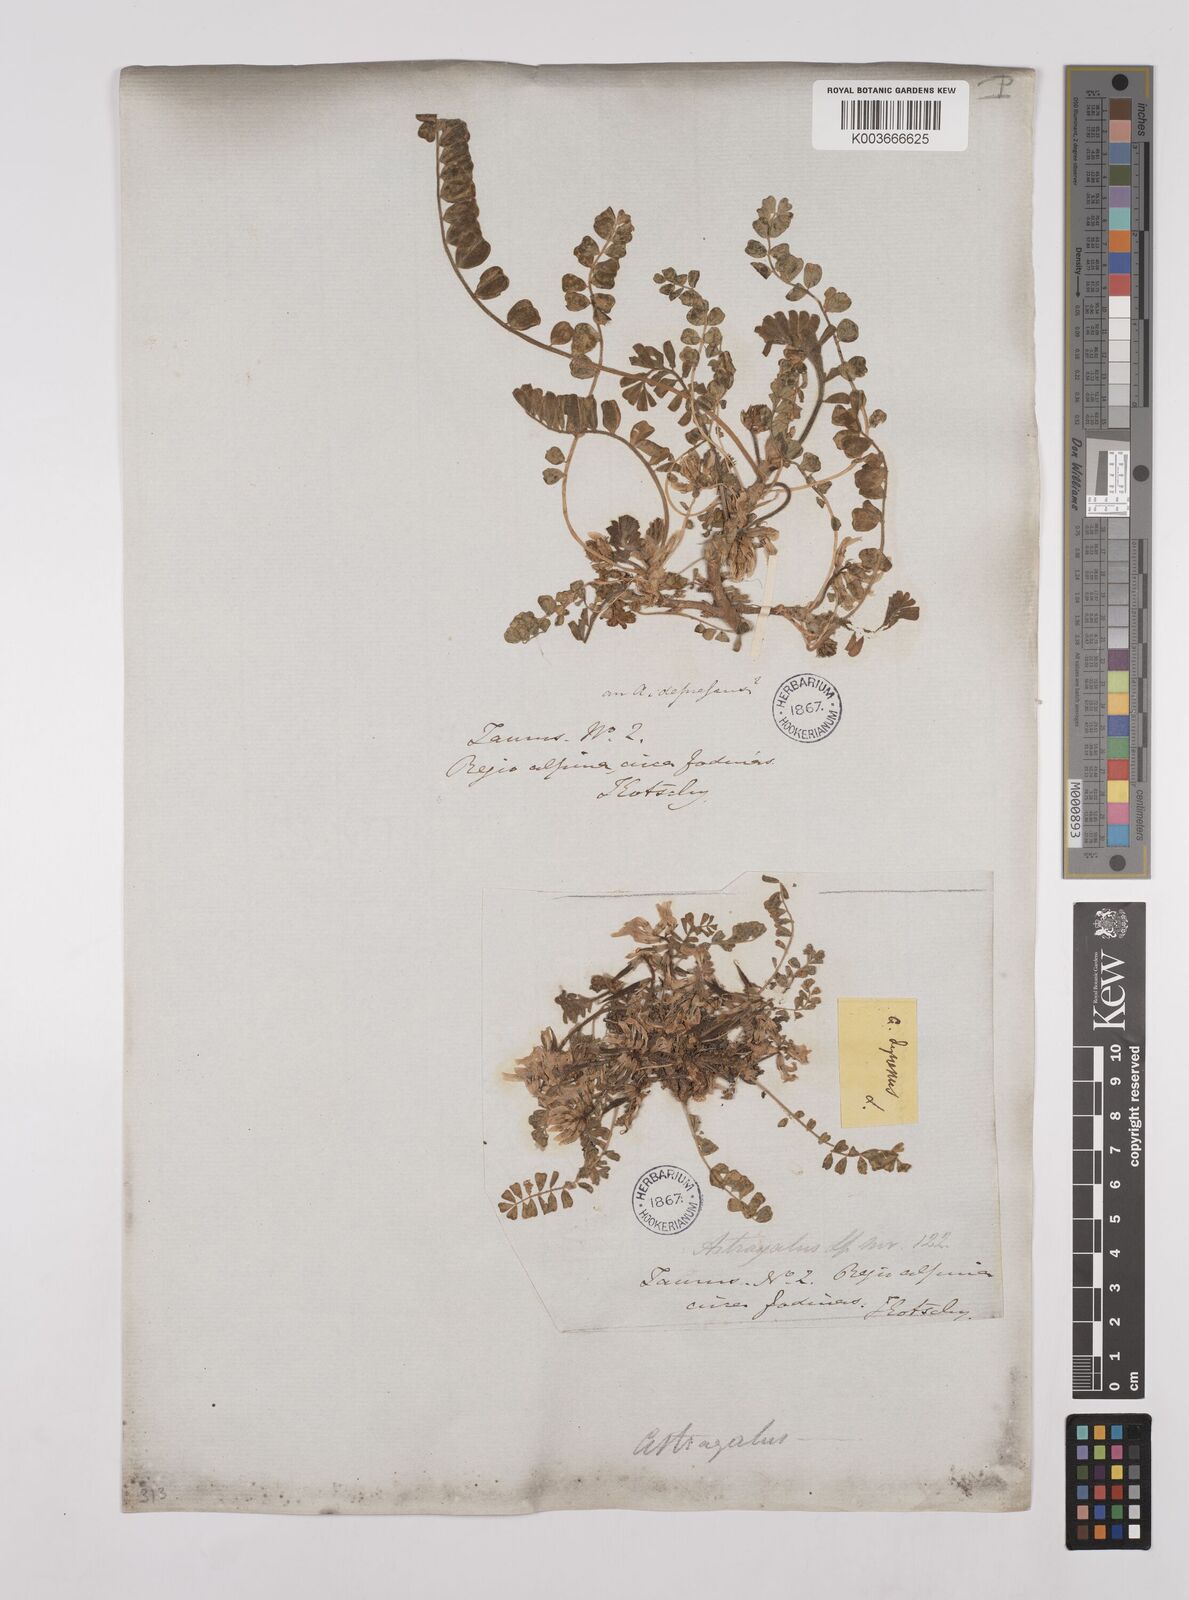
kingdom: Plantae
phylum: Tracheophyta
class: Magnoliopsida
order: Fabales
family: Fabaceae
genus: Astragalus
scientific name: Astragalus
